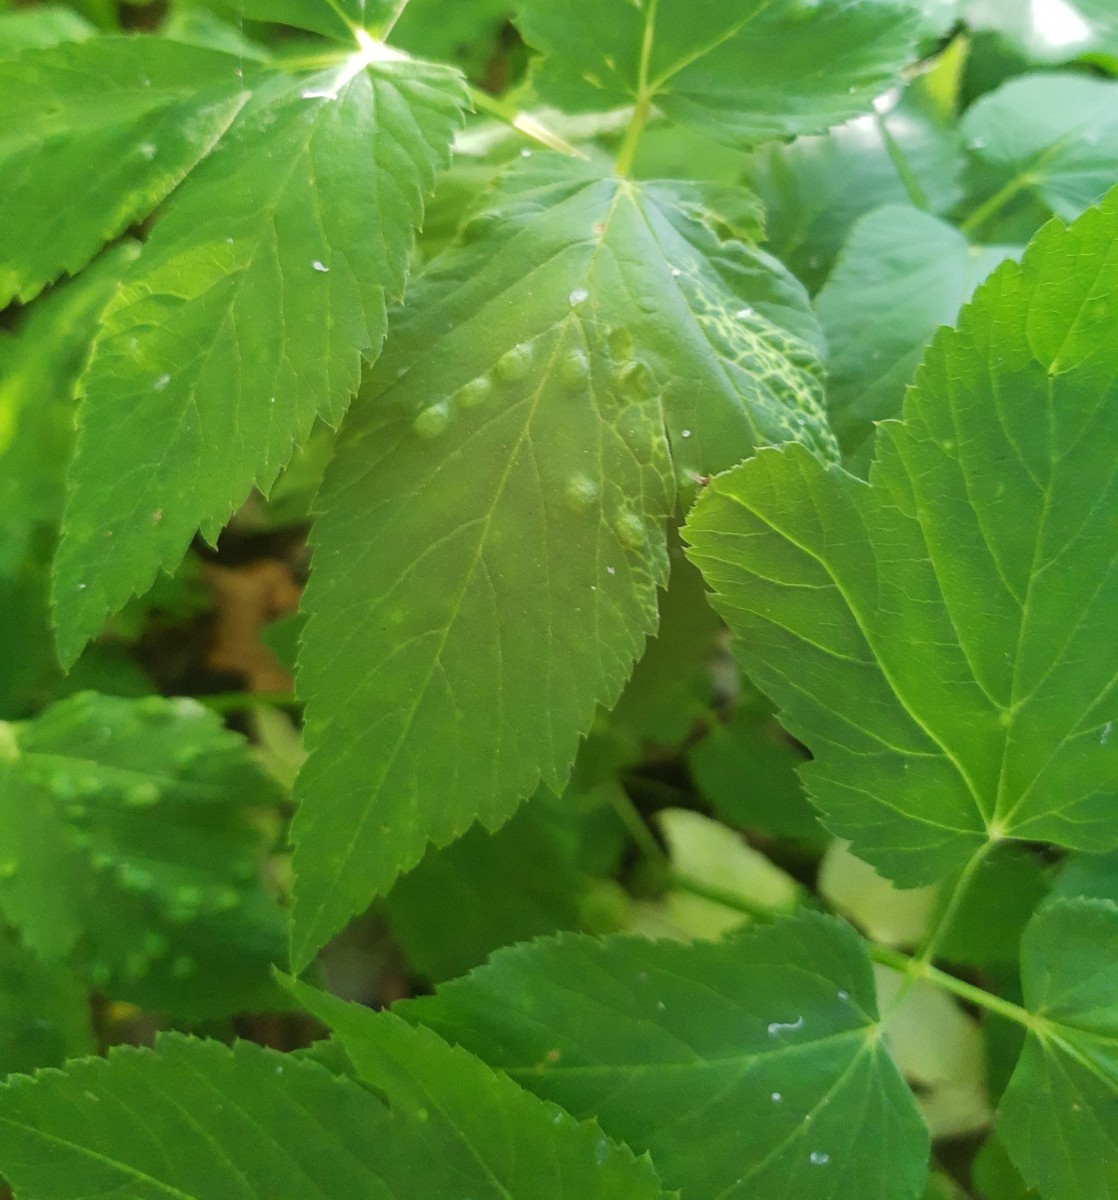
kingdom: Fungi
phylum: Ascomycota
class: Taphrinomycetes
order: Taphrinales
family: Taphrinaceae
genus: Protomyces
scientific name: Protomyces macrosporus
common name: skvalderkål-vablesæk
